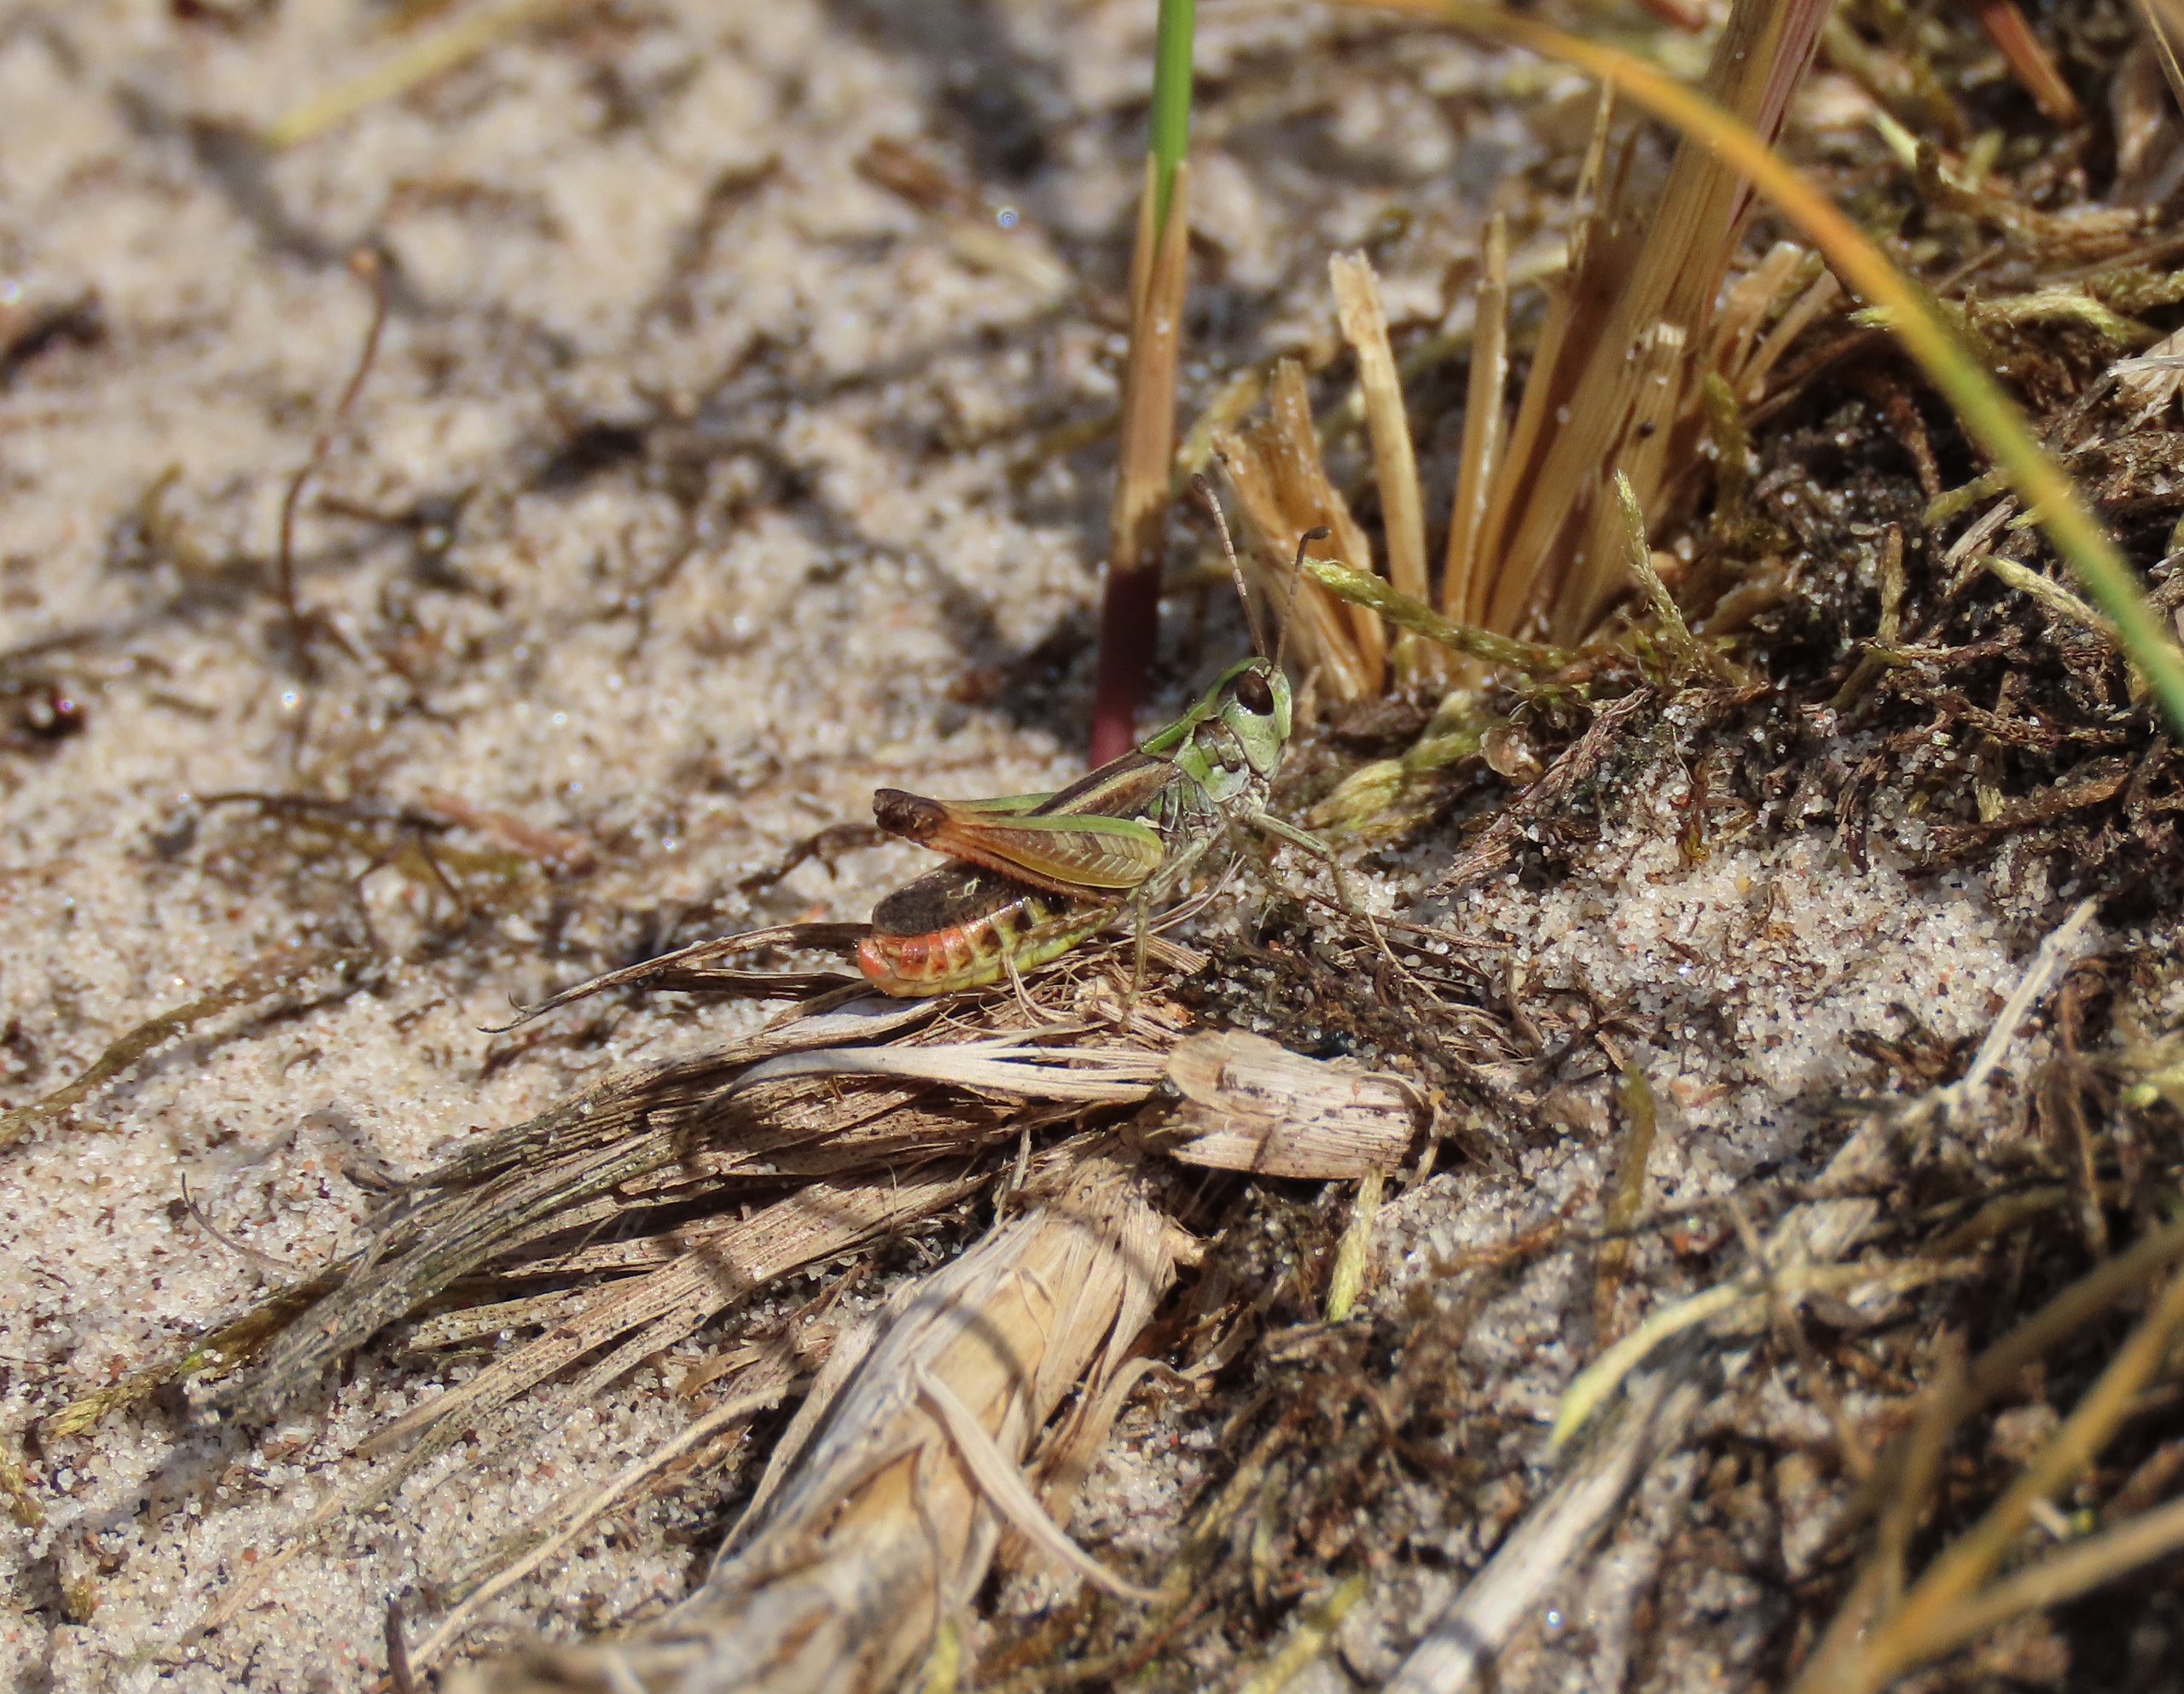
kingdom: Animalia
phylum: Arthropoda
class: Insecta
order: Orthoptera
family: Acrididae
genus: Myrmeleotettix
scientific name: Myrmeleotettix maculatus
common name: Køllegræshoppe
